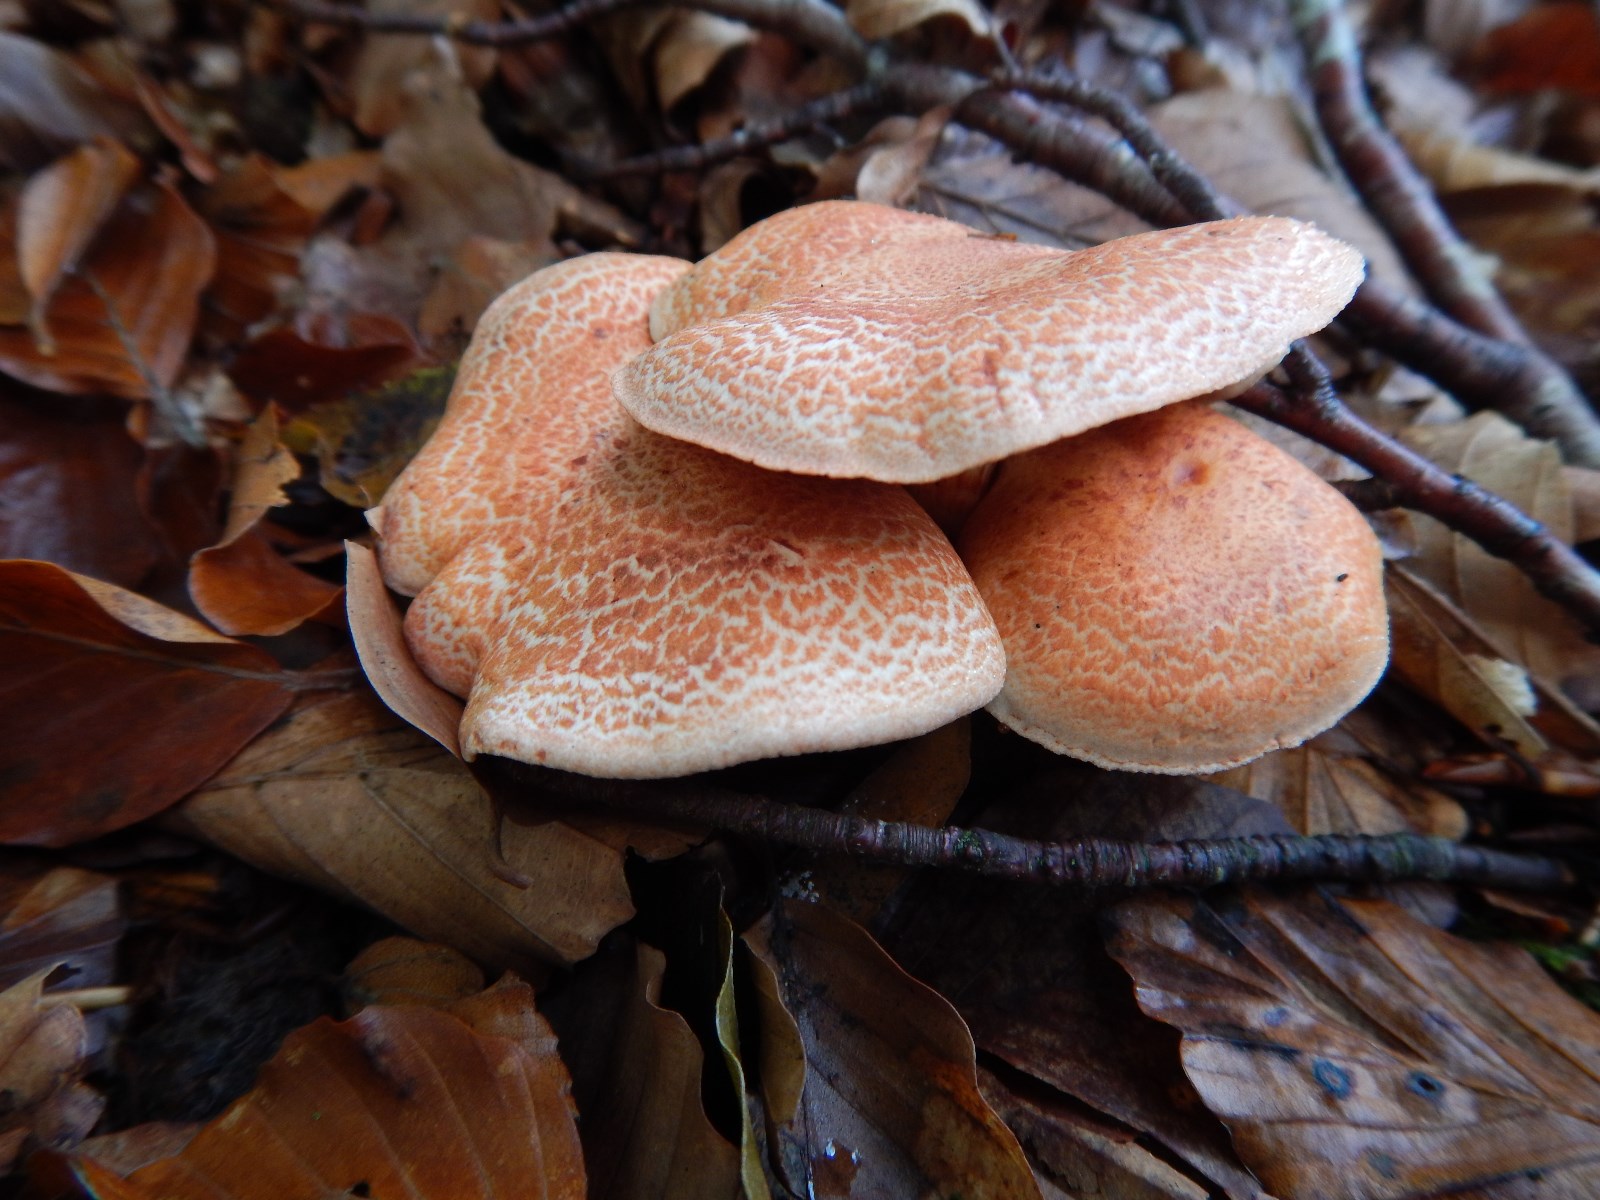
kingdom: Fungi
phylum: Basidiomycota
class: Agaricomycetes
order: Agaricales
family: Cortinariaceae
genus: Cortinarius
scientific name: Cortinarius bolaris
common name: cinnoberskællet slørhat
